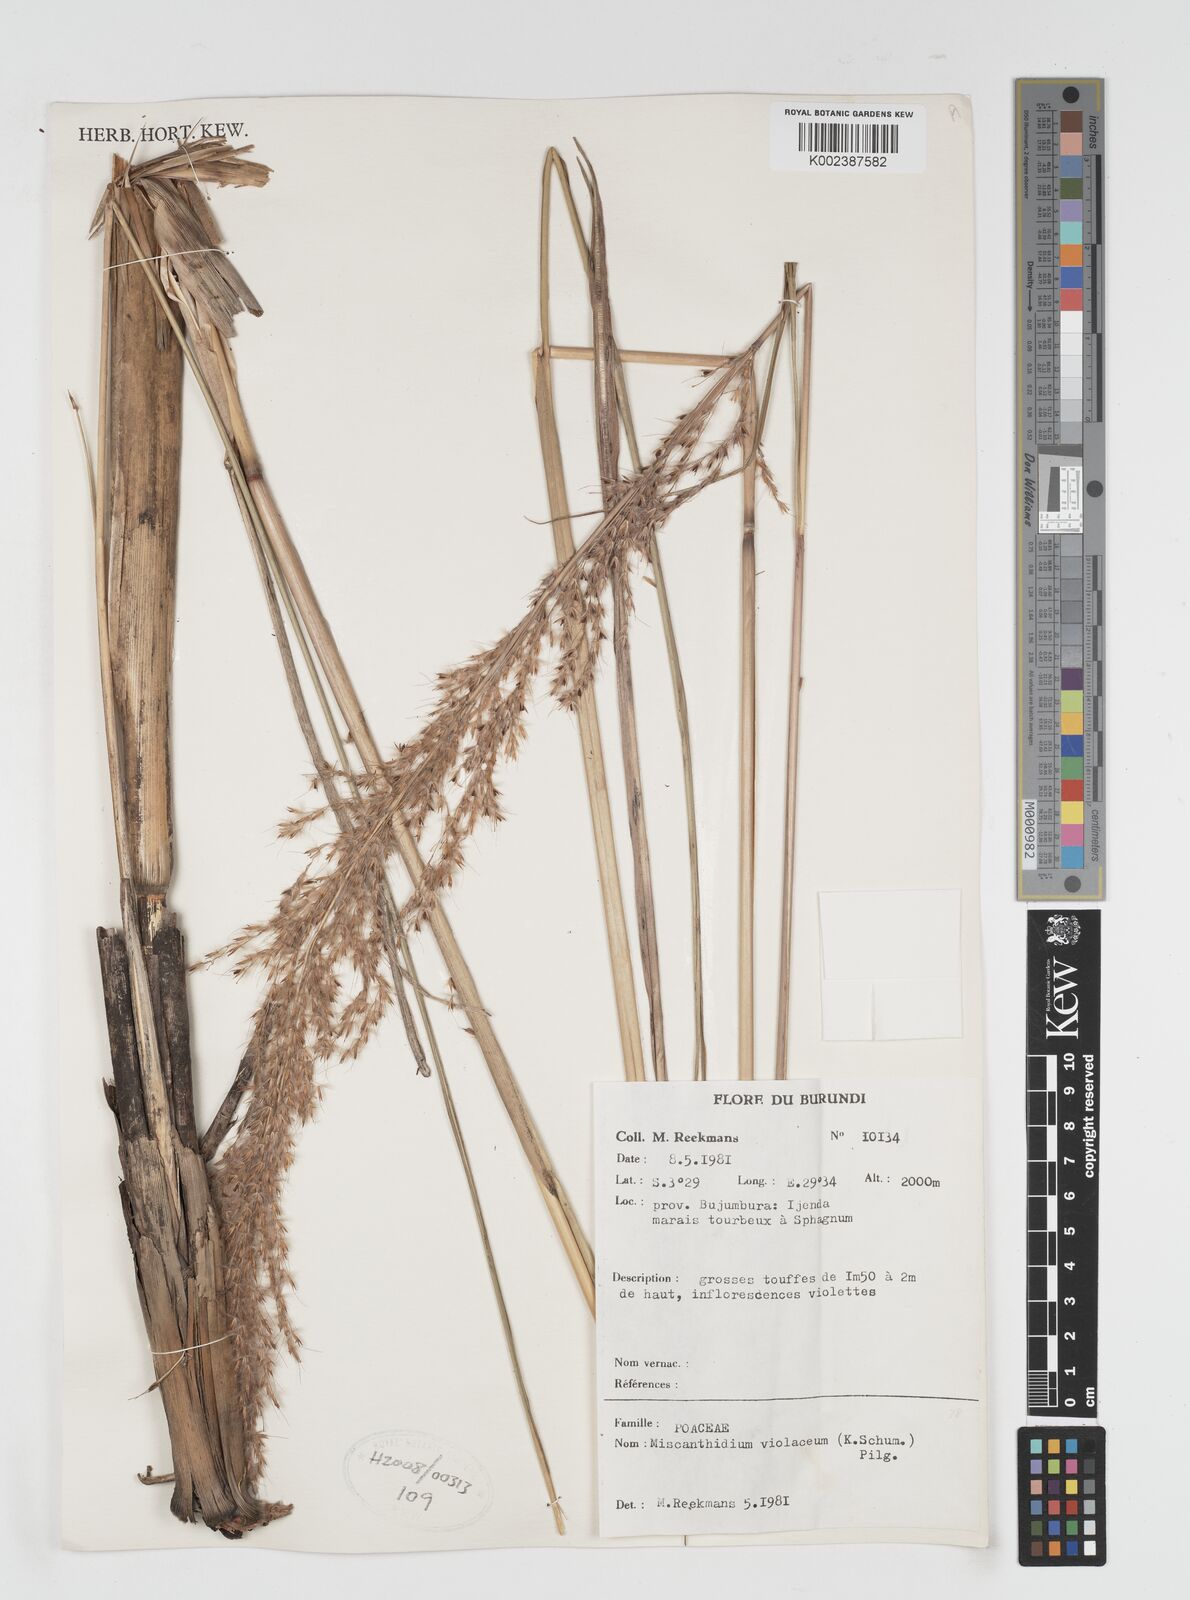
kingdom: Plantae
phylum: Tracheophyta
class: Liliopsida
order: Poales
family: Poaceae
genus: Miscanthidium
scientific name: Miscanthidium violaceum
